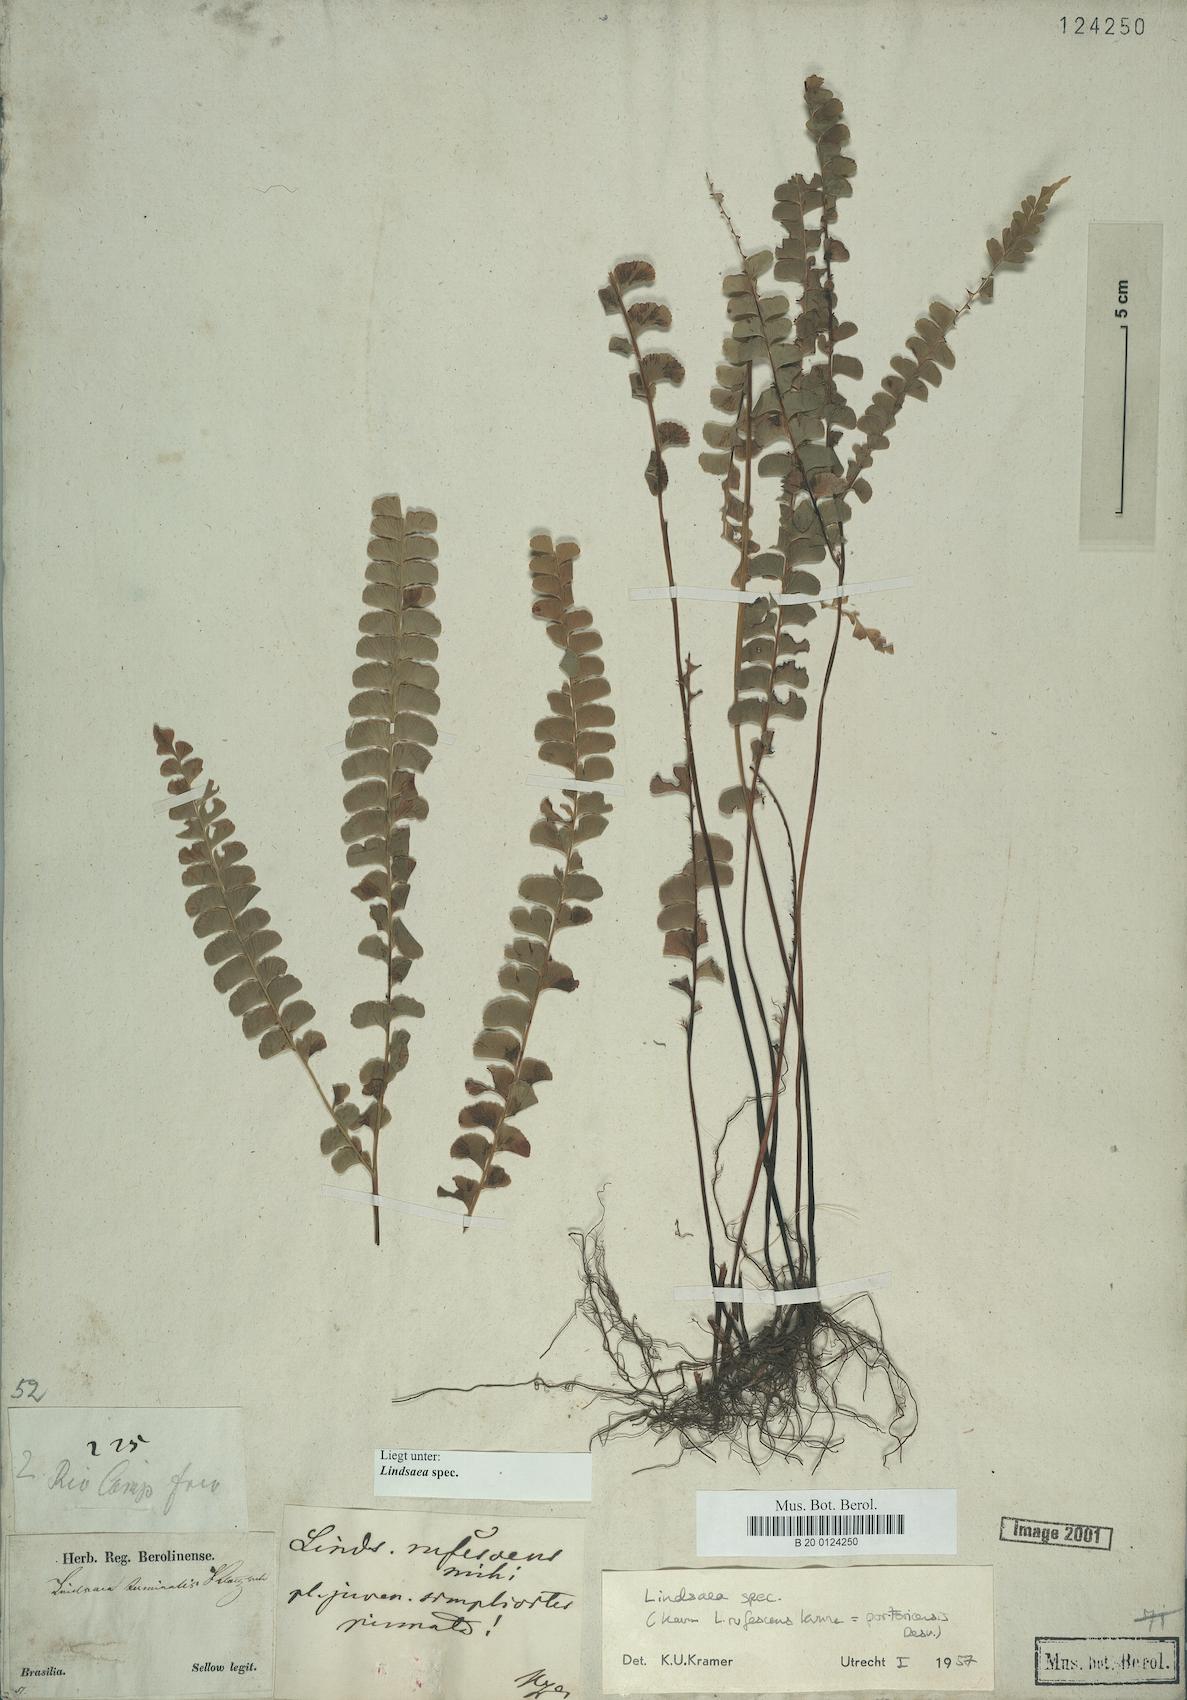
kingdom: Plantae
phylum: Tracheophyta
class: Polypodiopsida
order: Polypodiales
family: Lindsaeaceae
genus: Lindsaea
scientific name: Lindsaea
